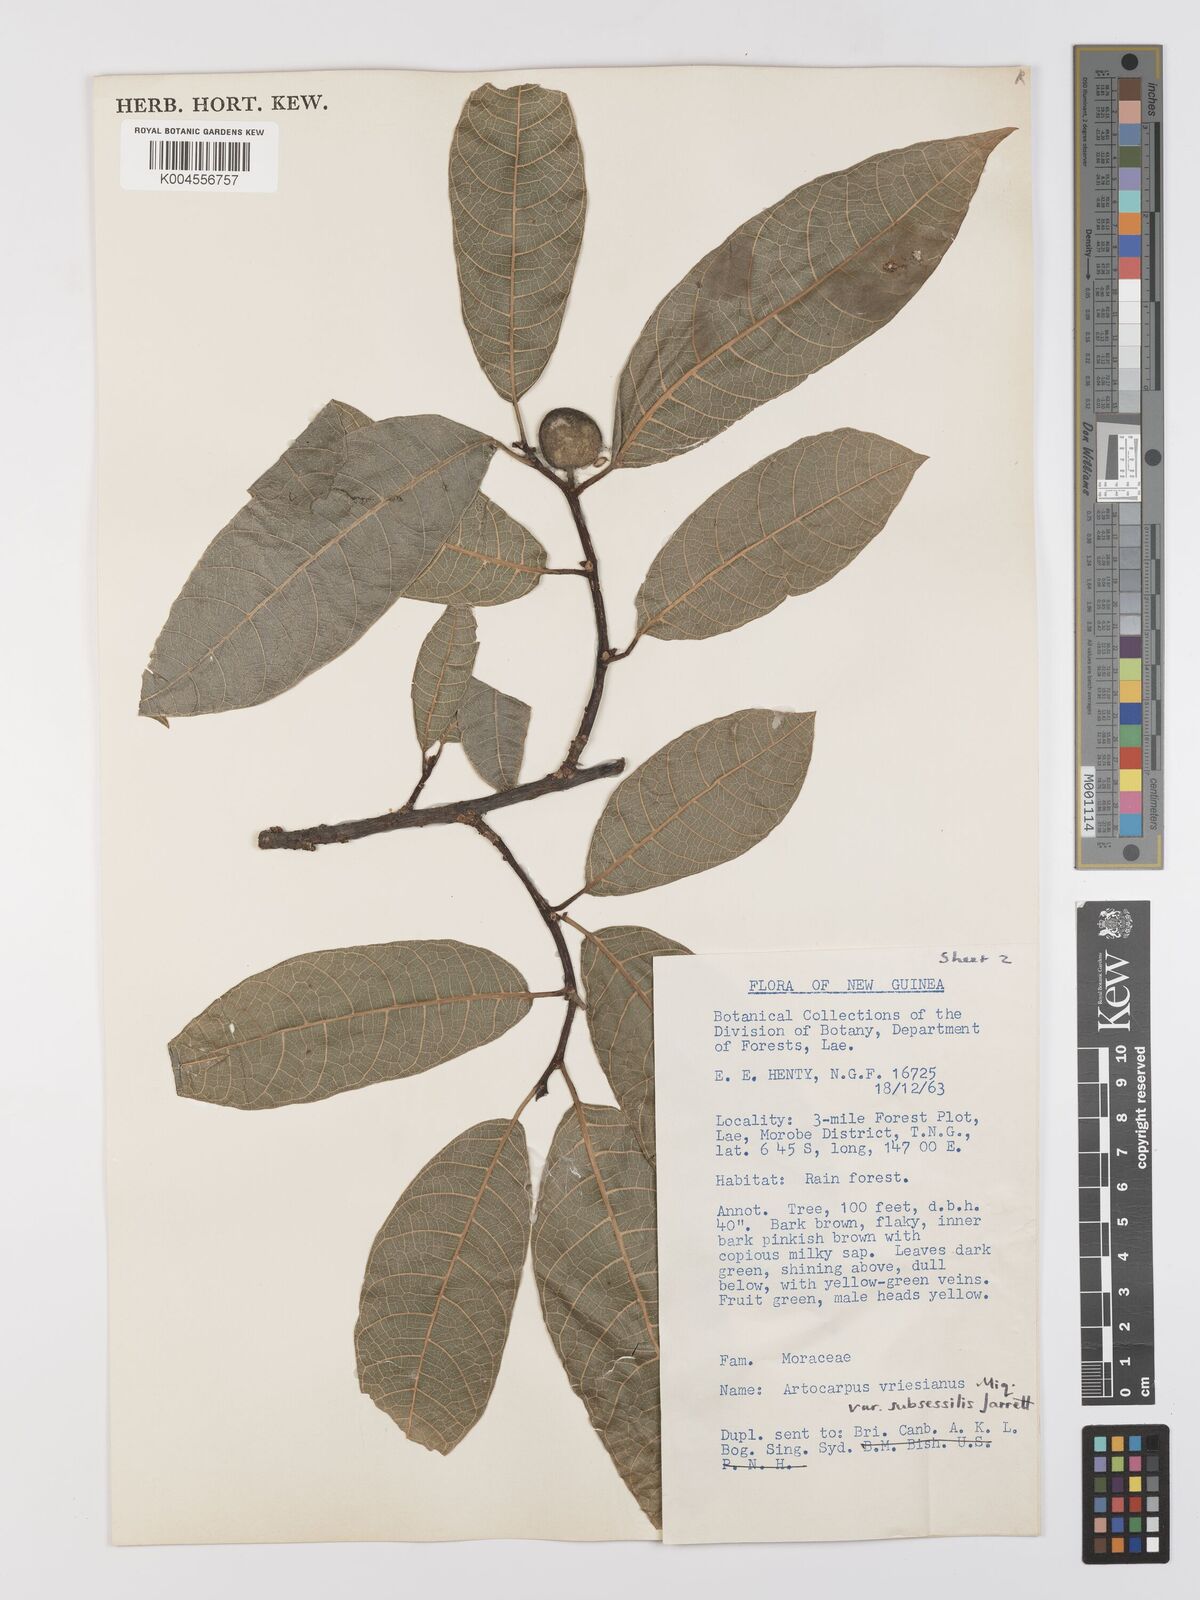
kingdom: Plantae
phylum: Tracheophyta
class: Magnoliopsida
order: Rosales
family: Moraceae
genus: Artocarpus
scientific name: Artocarpus vrieseanus
